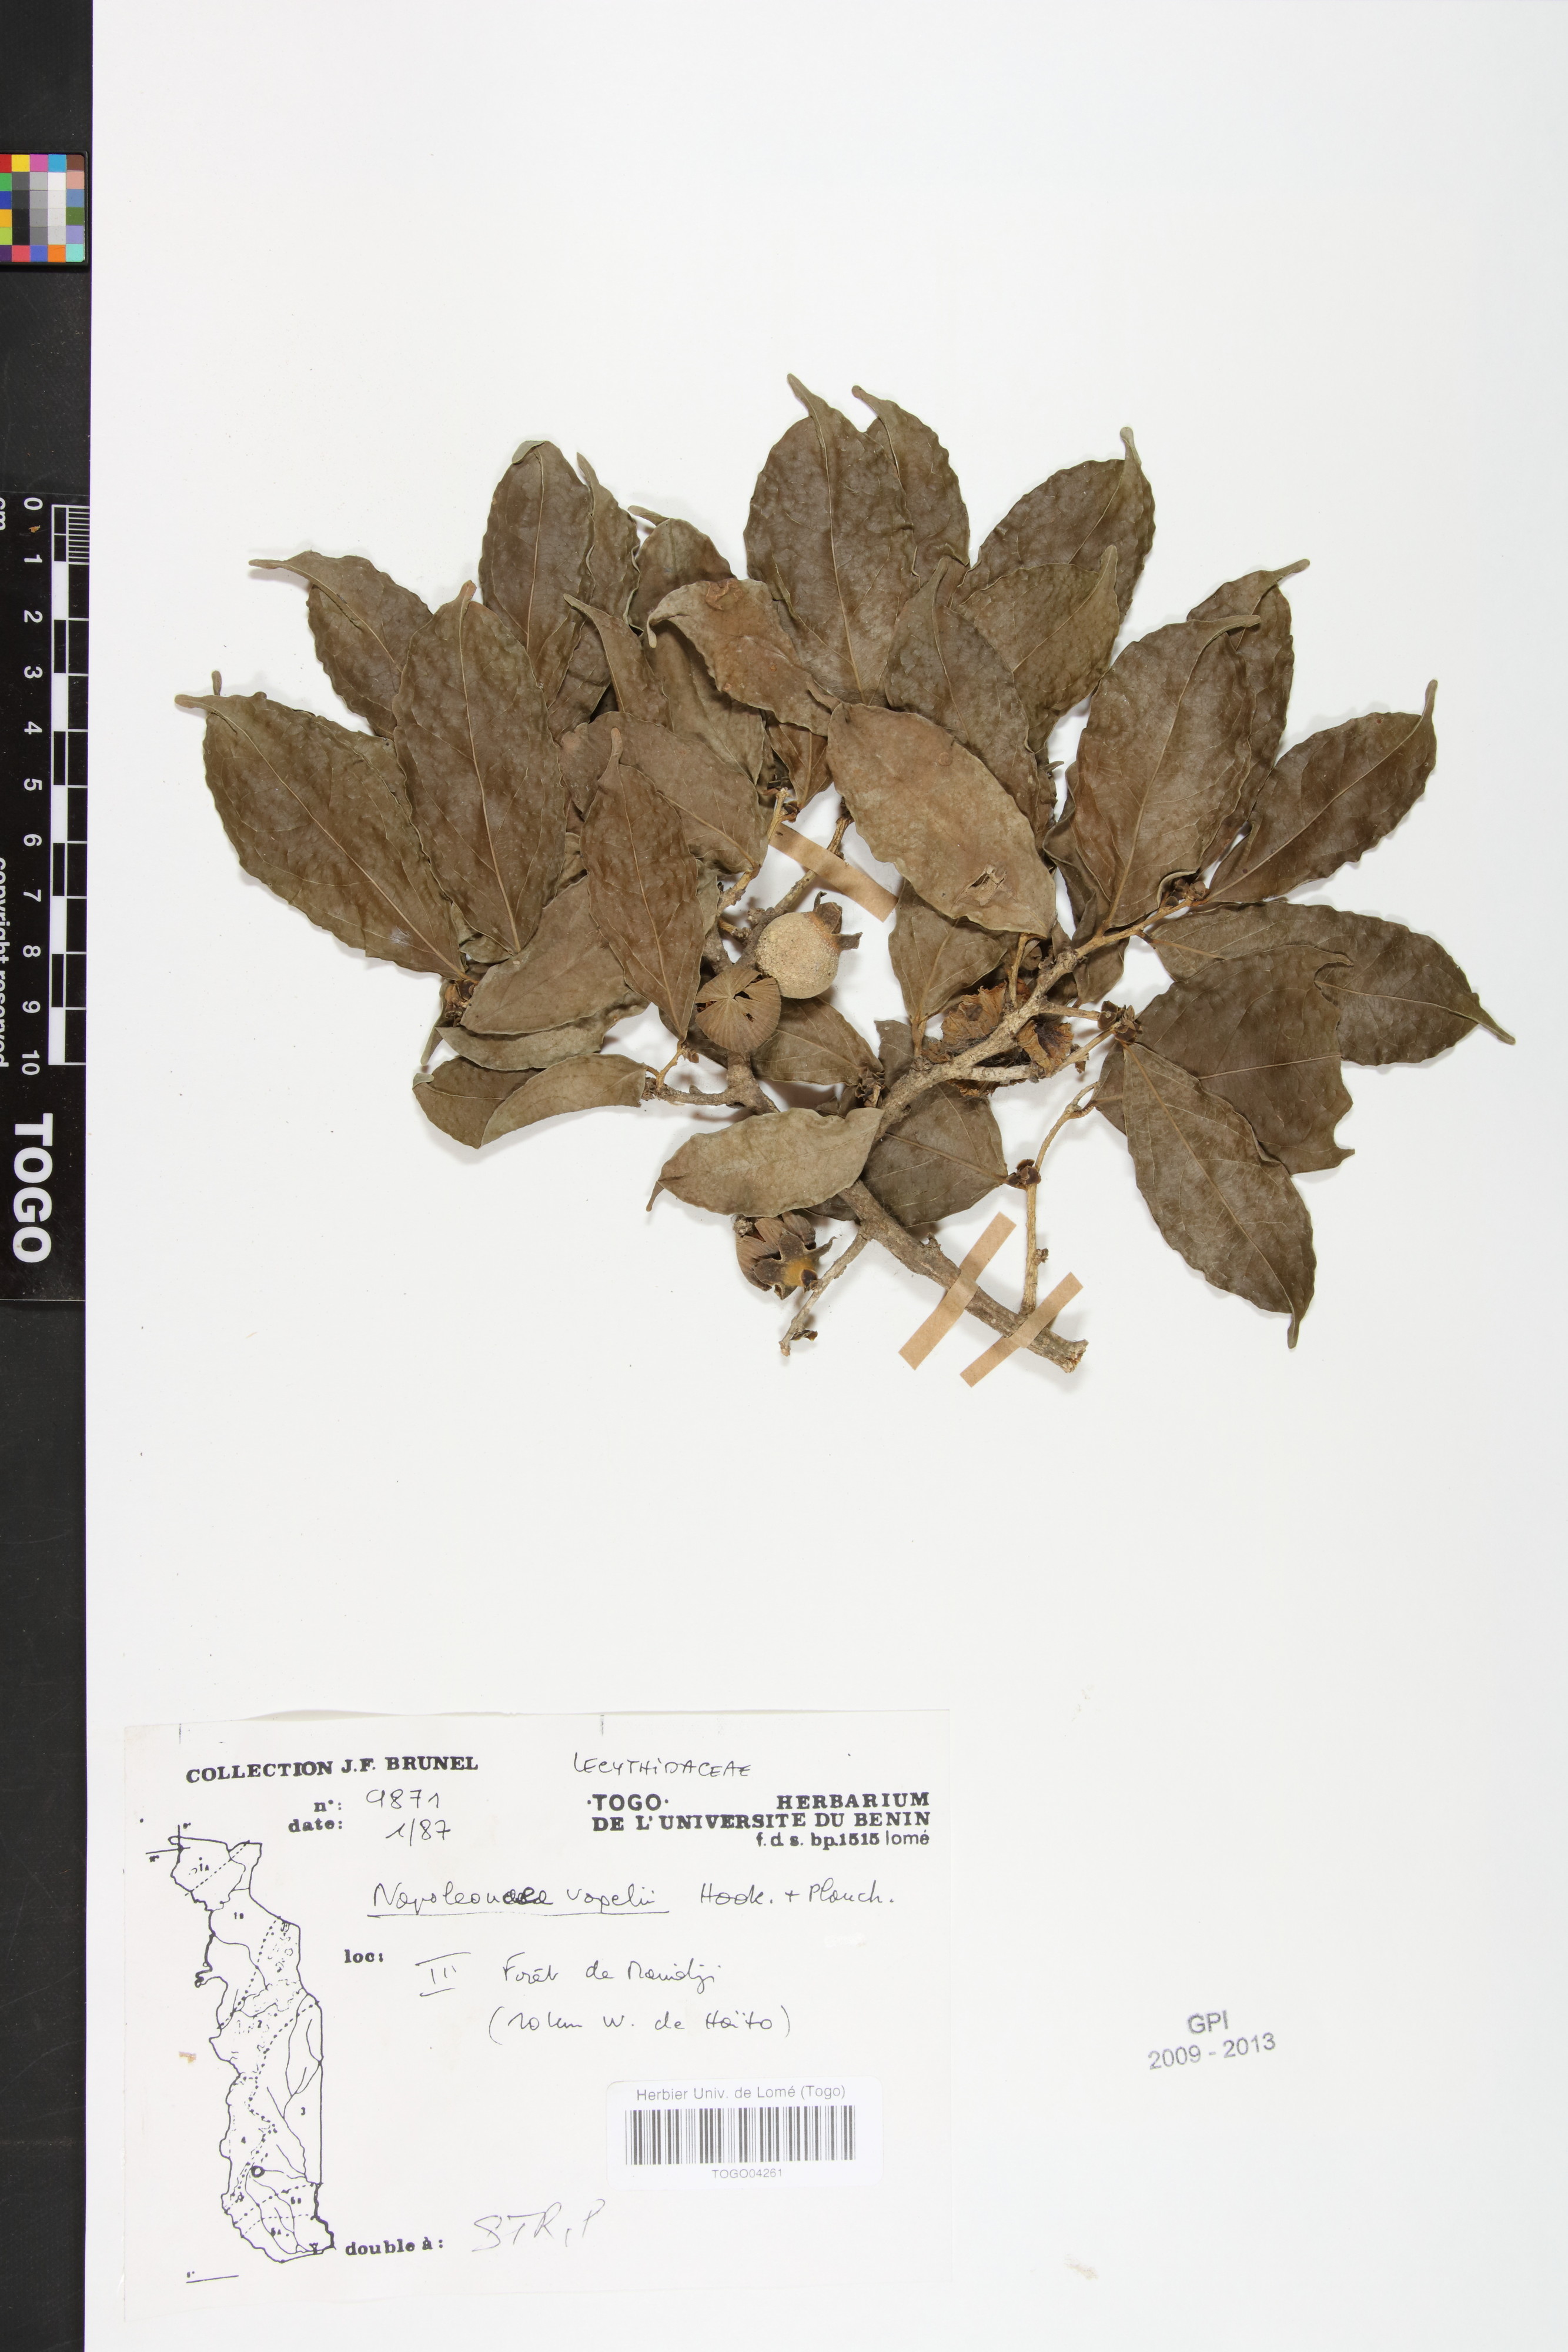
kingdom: Plantae
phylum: Tracheophyta
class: Magnoliopsida
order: Ericales
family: Lecythidaceae
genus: Napoleonaea
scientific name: Napoleonaea vogelii
